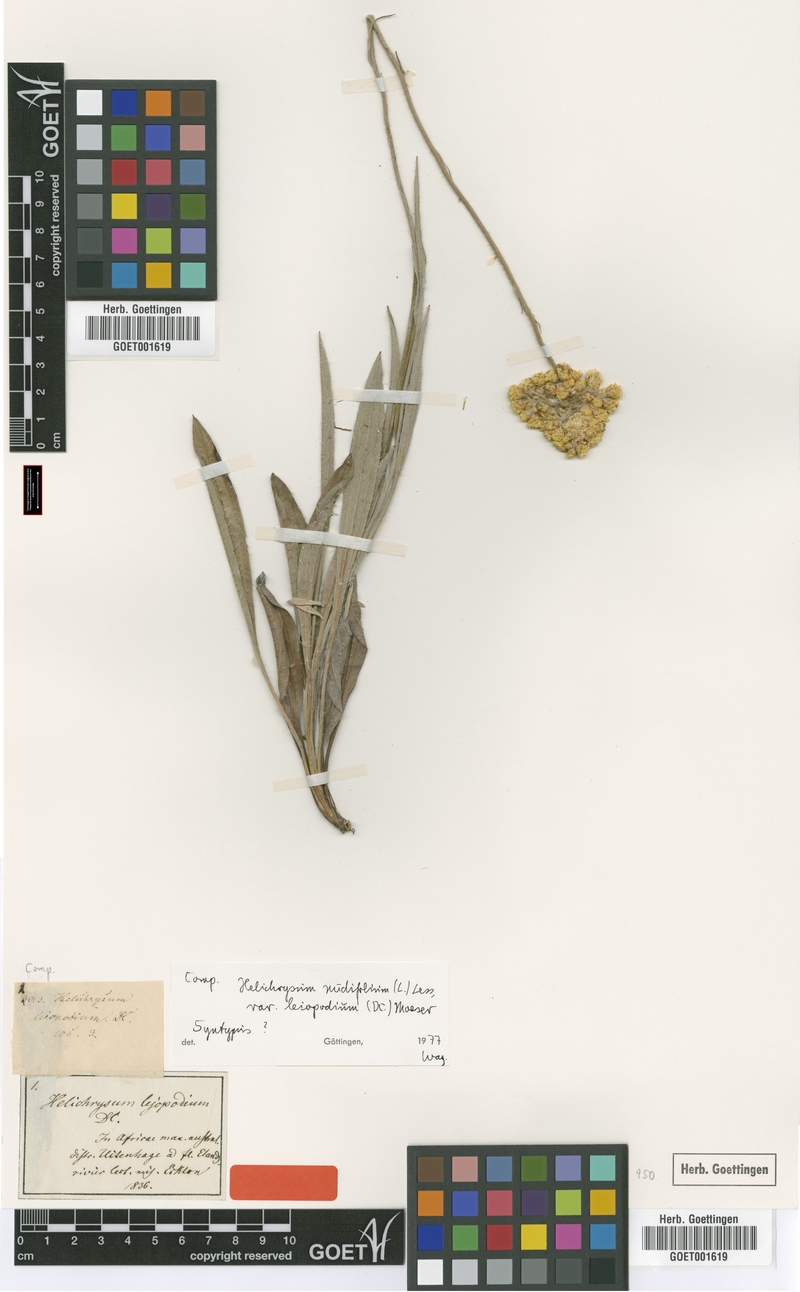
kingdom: Plantae
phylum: Tracheophyta
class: Magnoliopsida
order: Asterales
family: Asteraceae
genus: Helichrysum
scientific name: Helichrysum nudifolium
